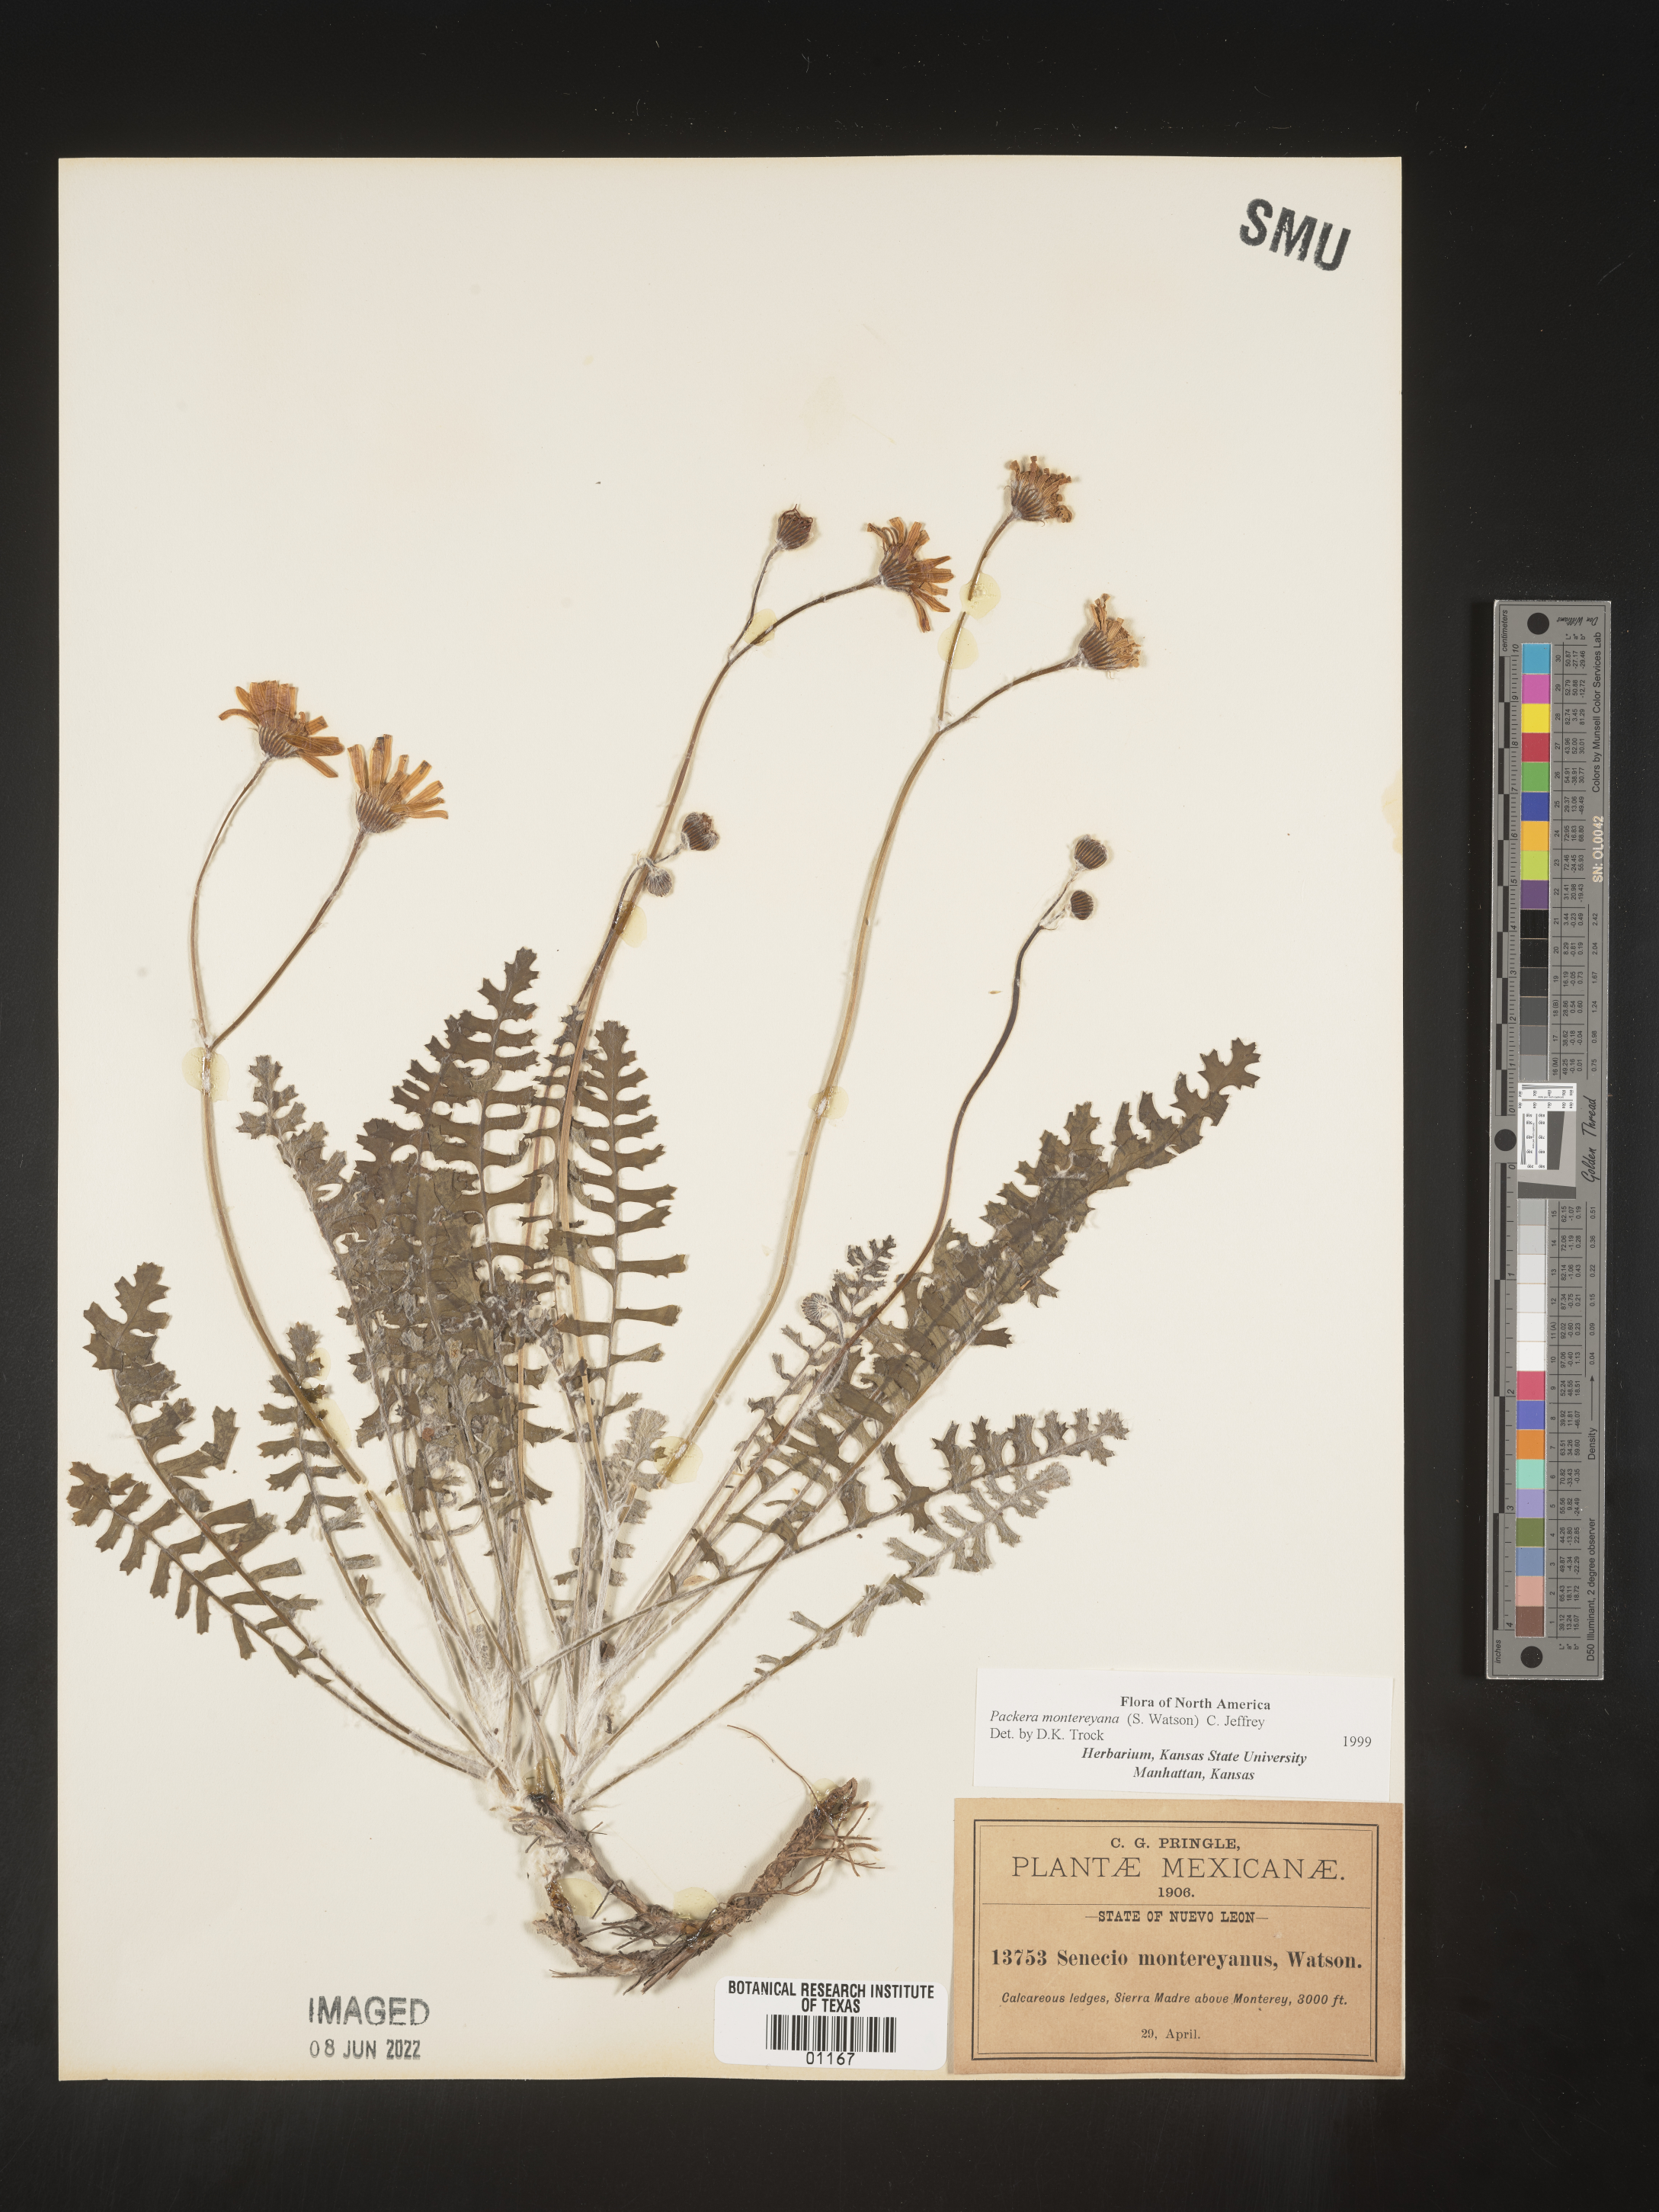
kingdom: Plantae
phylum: Tracheophyta
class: Magnoliopsida
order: Asterales
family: Asteraceae
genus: Packera
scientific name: Packera
